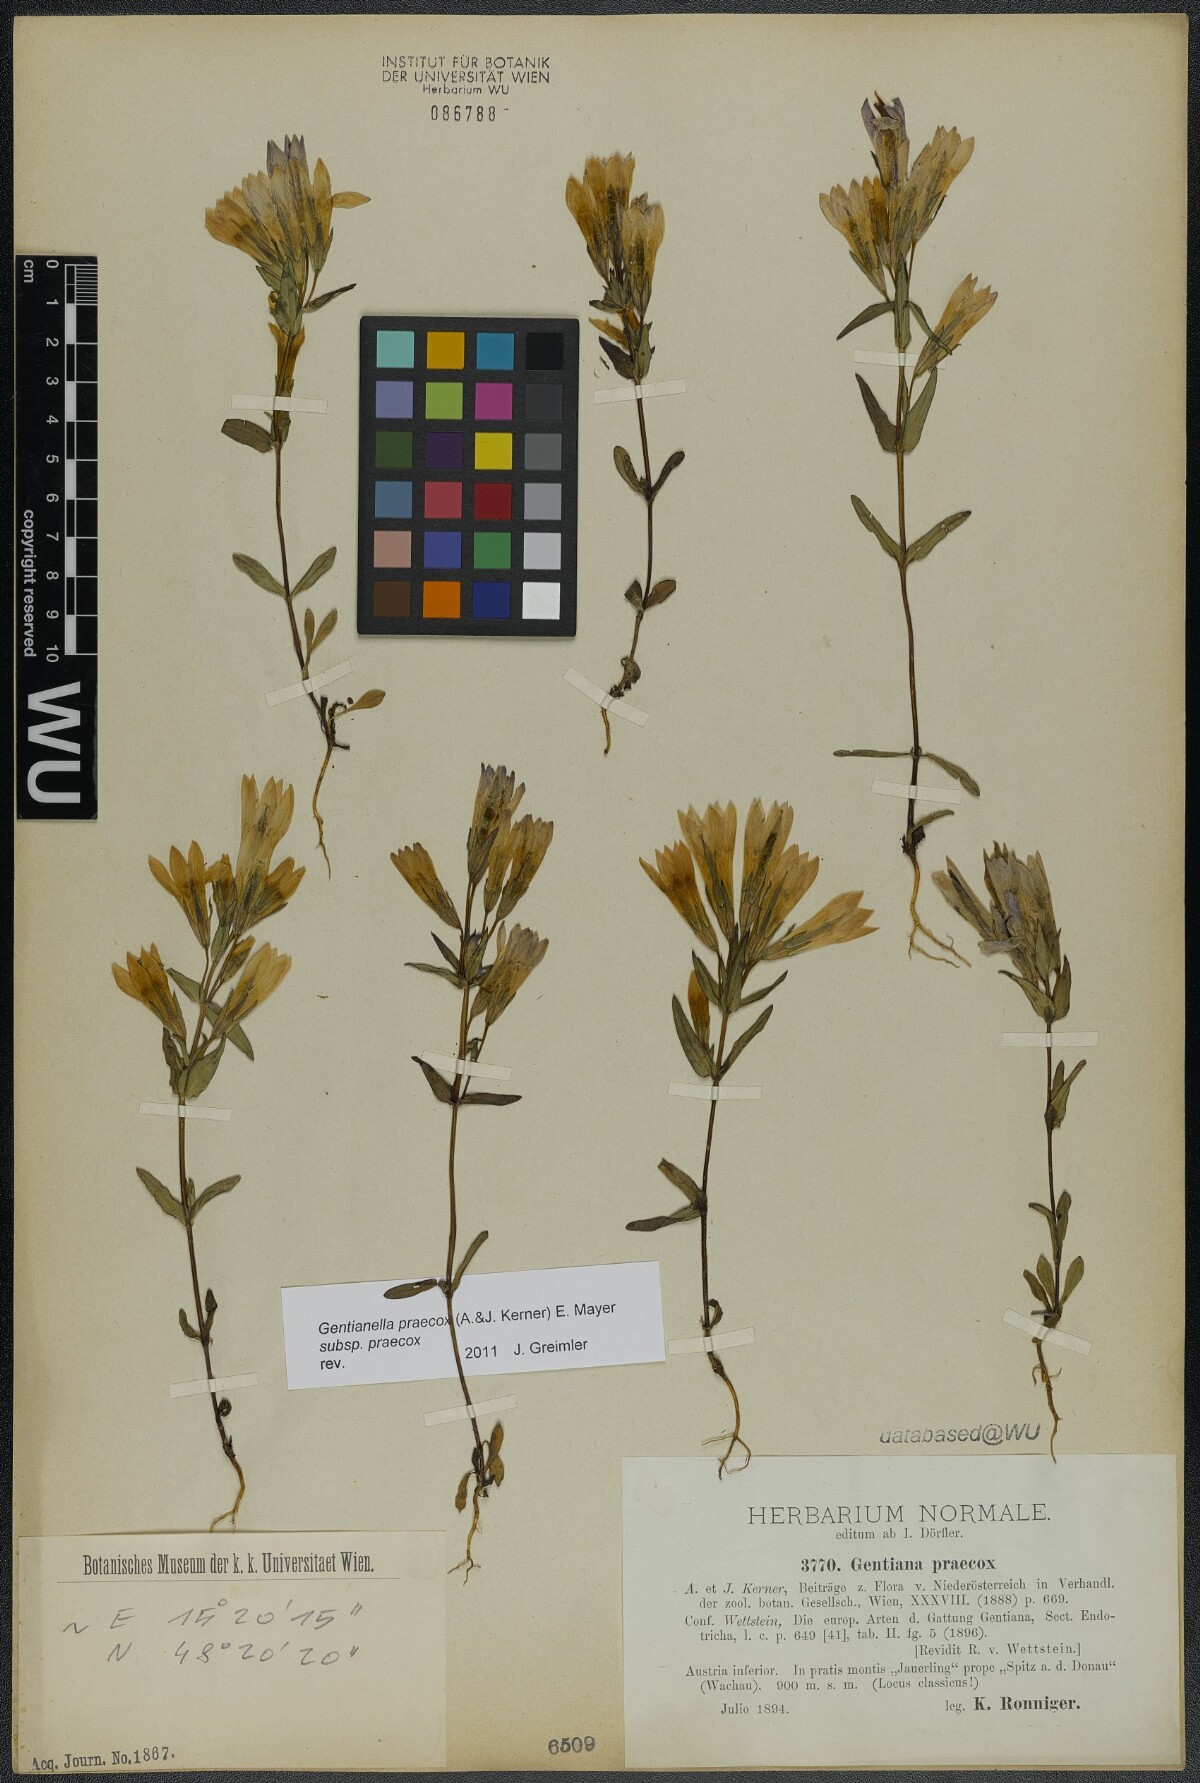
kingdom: Plantae
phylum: Tracheophyta
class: Magnoliopsida
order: Gentianales
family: Gentianaceae
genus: Gentianella
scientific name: Gentianella praecox
